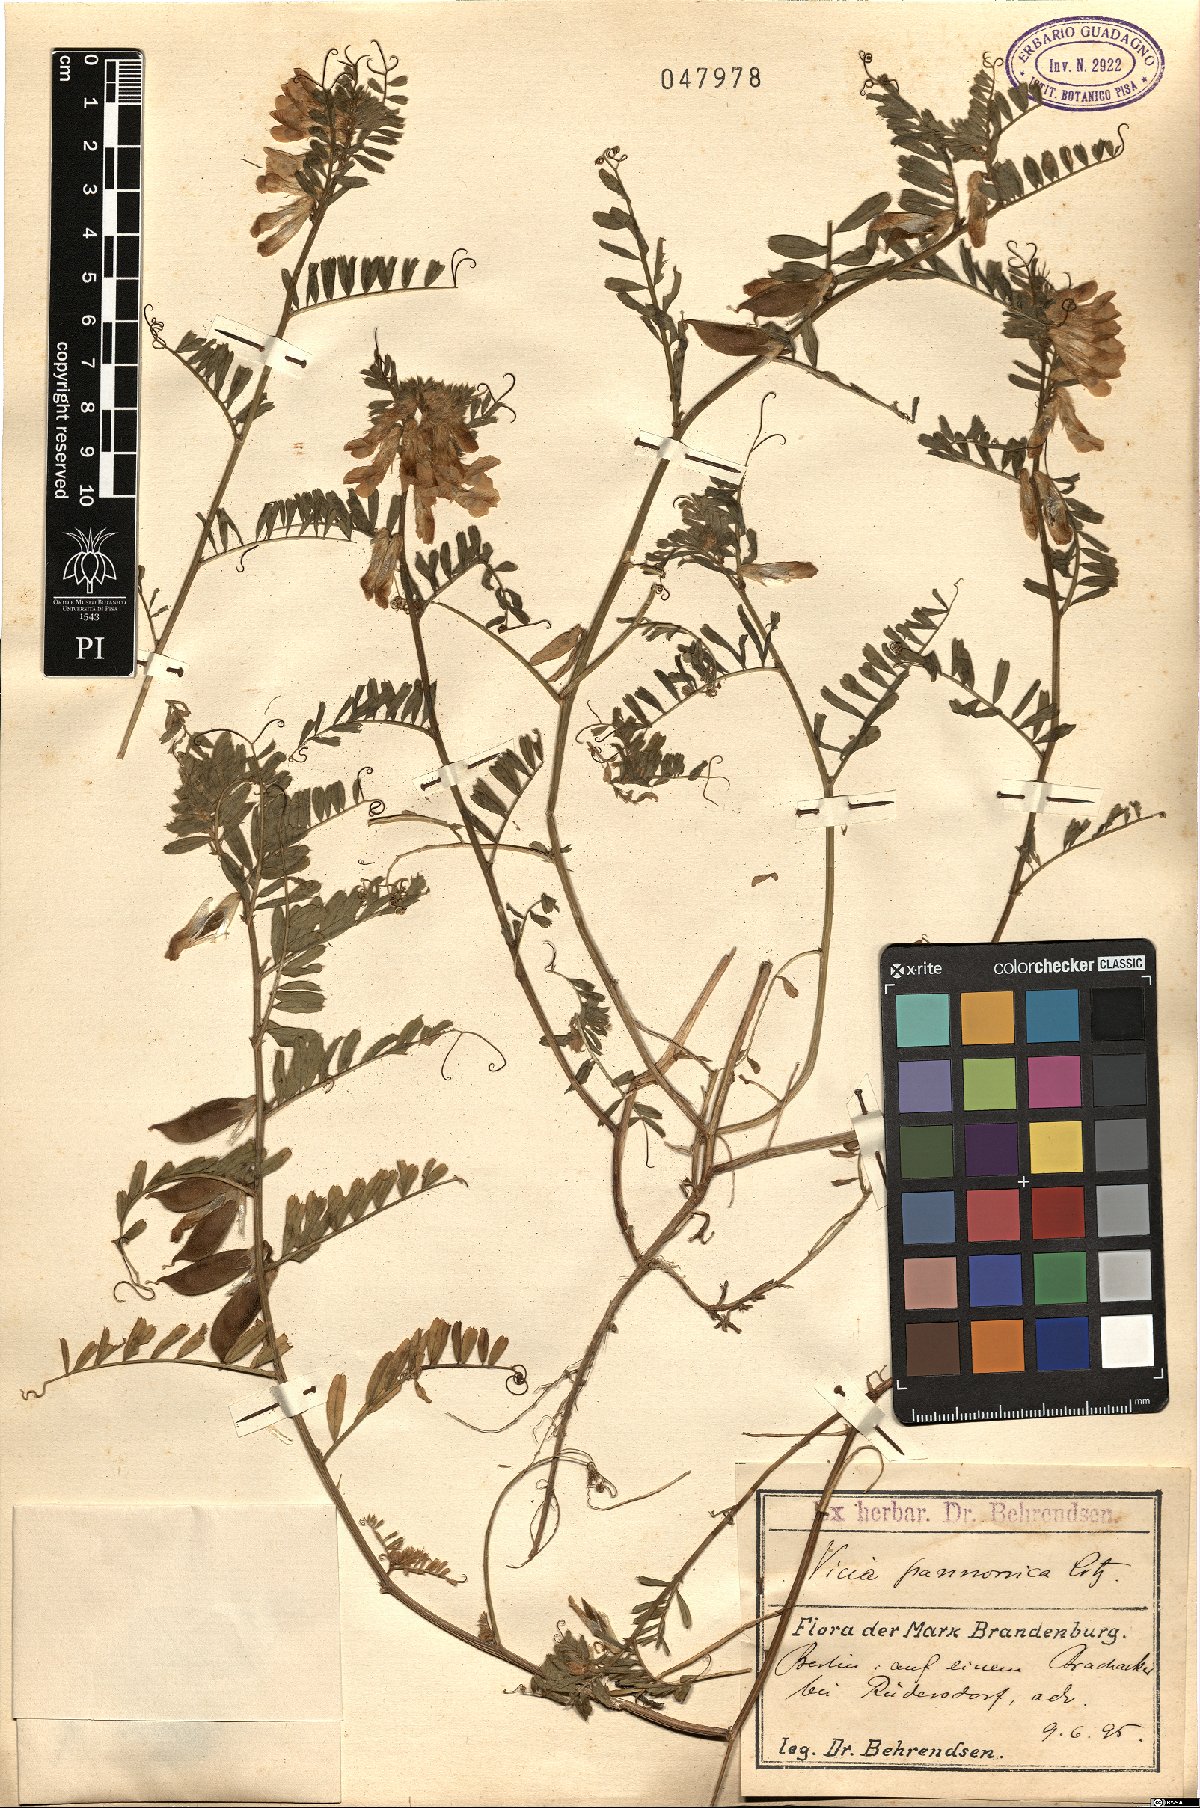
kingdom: Plantae
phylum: Tracheophyta
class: Magnoliopsida
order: Fabales
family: Fabaceae
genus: Vicia
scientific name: Vicia pannonica
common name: Hungarian vetch
